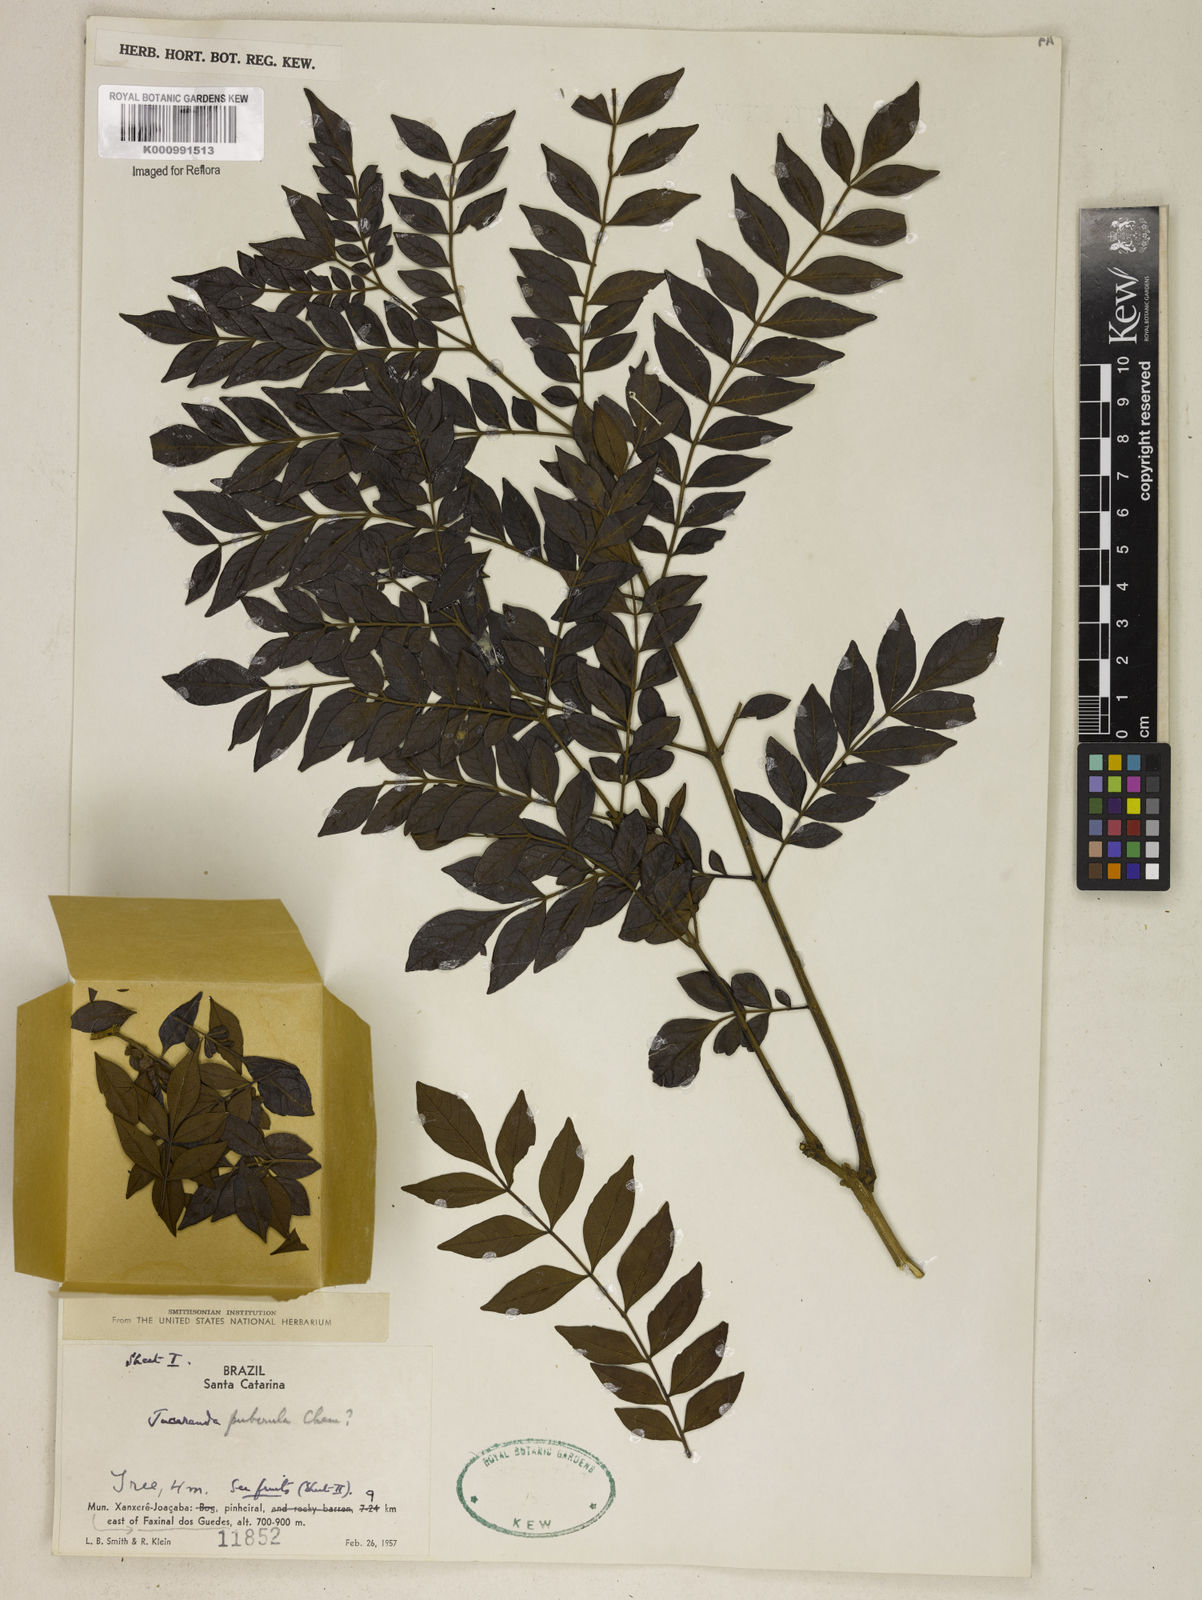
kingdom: Plantae
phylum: Tracheophyta
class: Magnoliopsida
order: Lamiales
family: Bignoniaceae
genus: Jacaranda
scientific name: Jacaranda puberula
